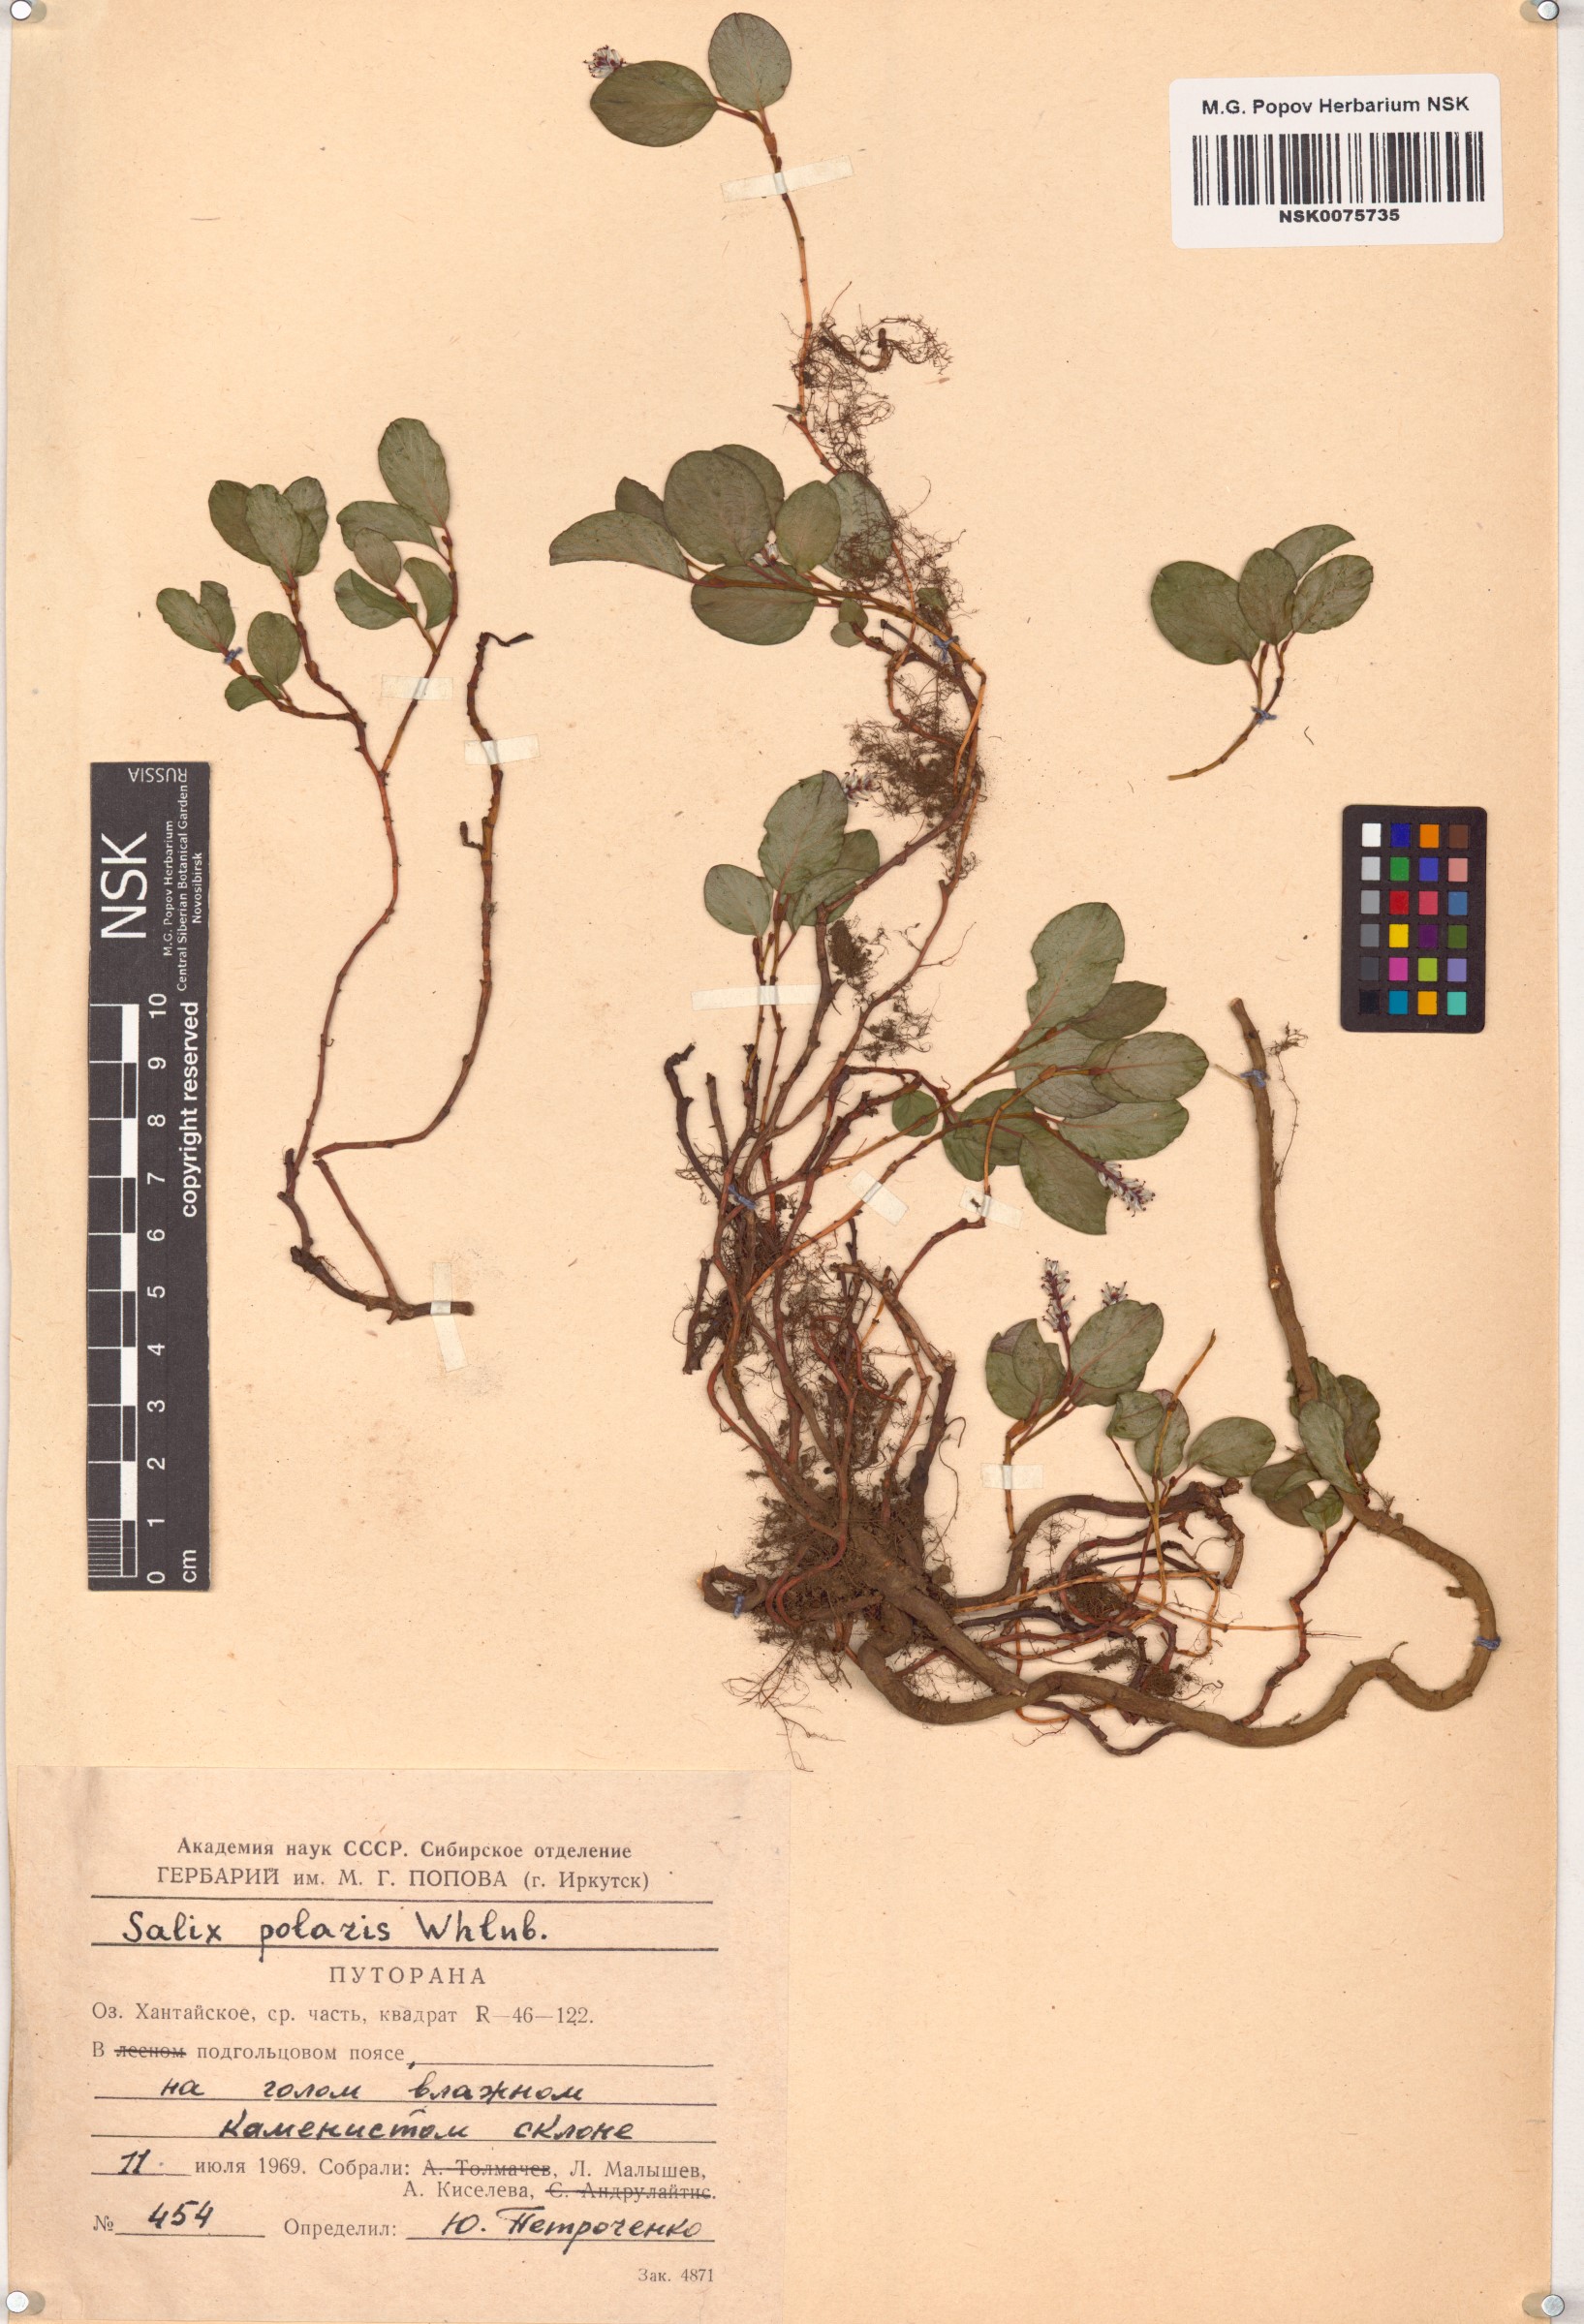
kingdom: Plantae
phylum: Tracheophyta
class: Magnoliopsida
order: Malpighiales
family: Salicaceae
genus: Salix
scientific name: Salix polaris
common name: Polar willow
